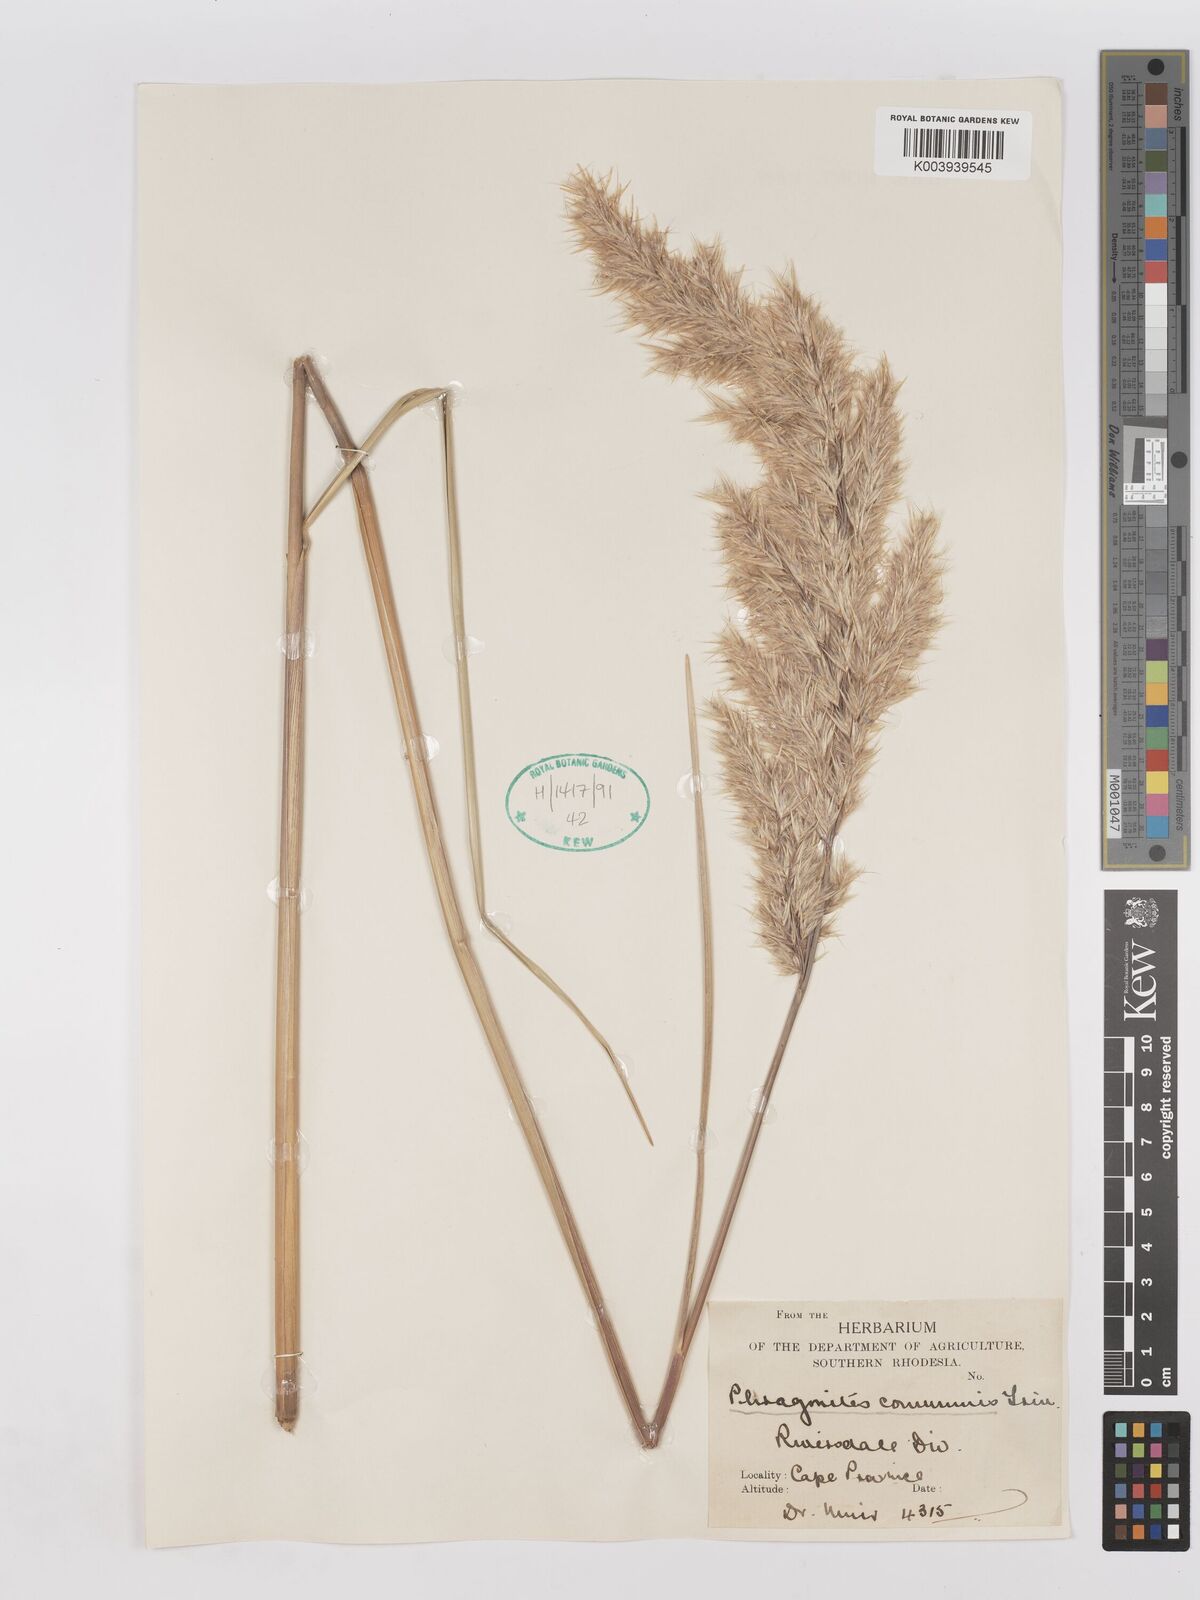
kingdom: Plantae
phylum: Tracheophyta
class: Liliopsida
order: Poales
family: Poaceae
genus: Phragmites
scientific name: Phragmites australis
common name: Common reed
